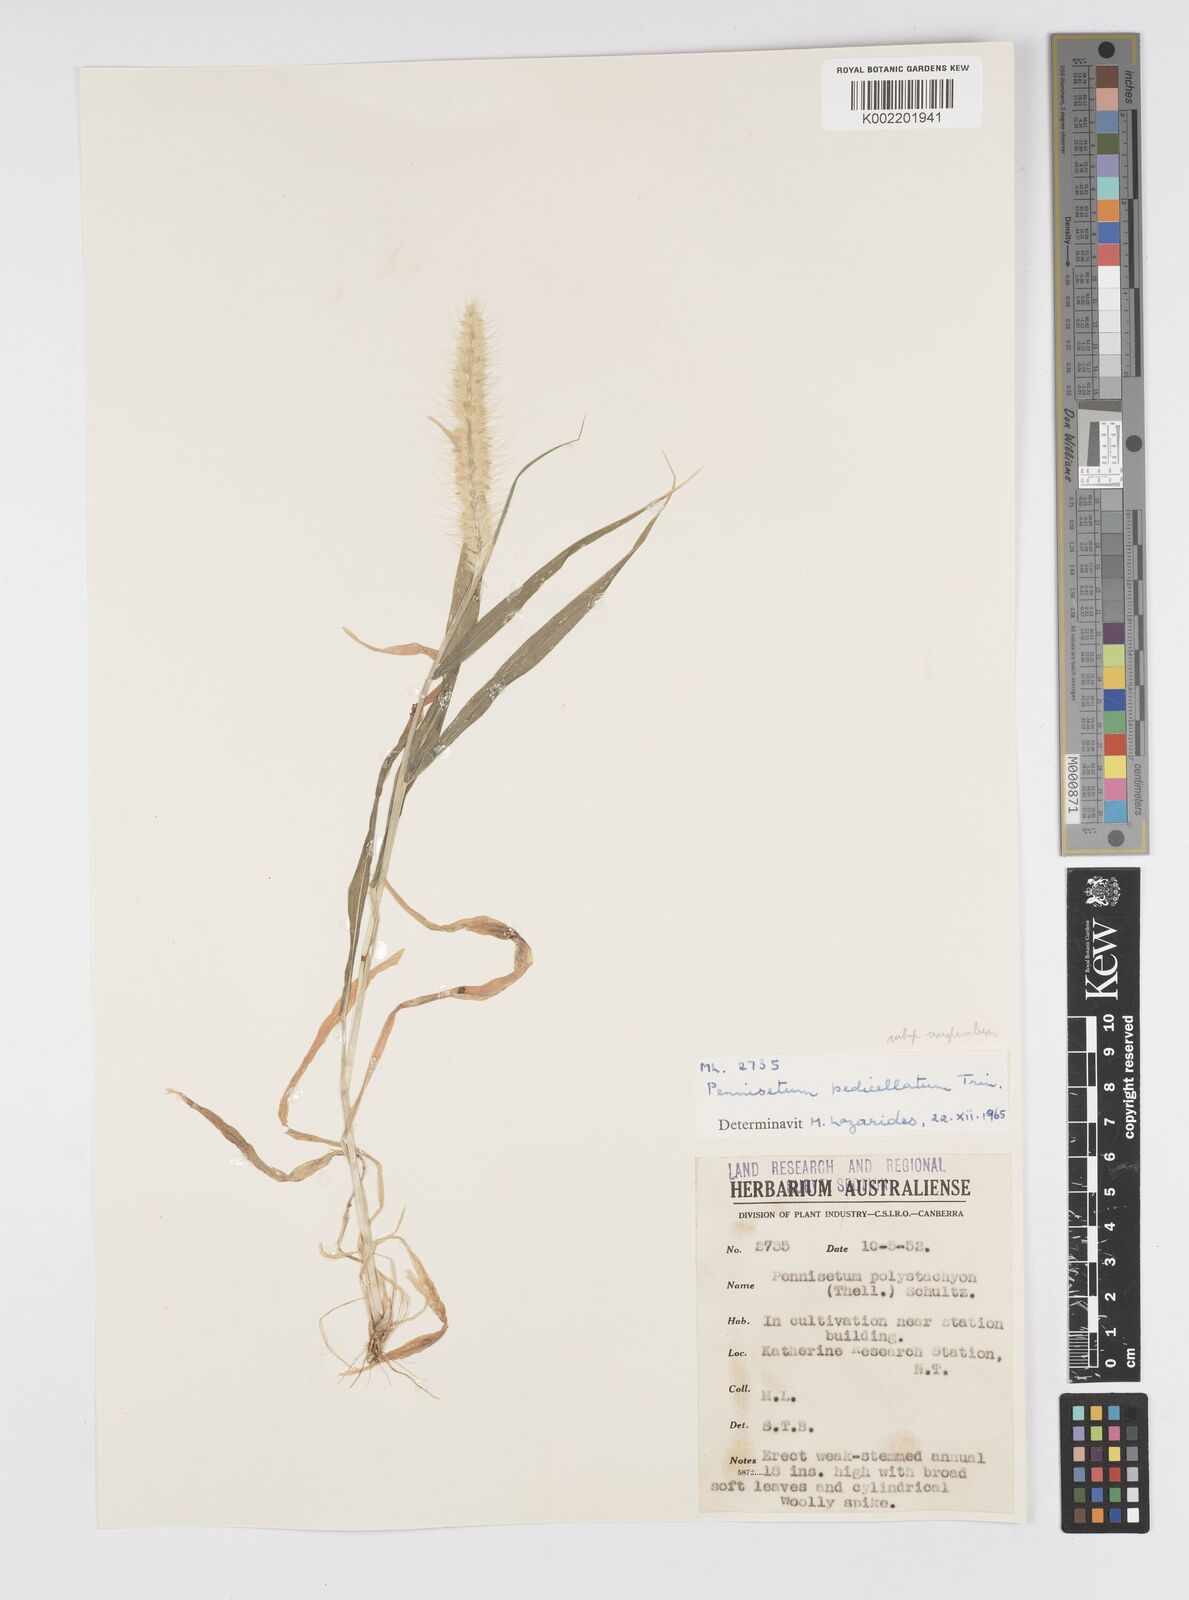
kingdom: Plantae
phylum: Tracheophyta
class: Liliopsida
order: Poales
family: Poaceae
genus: Cenchrus
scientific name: Cenchrus pedicellatus
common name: Hairy fountain grass
